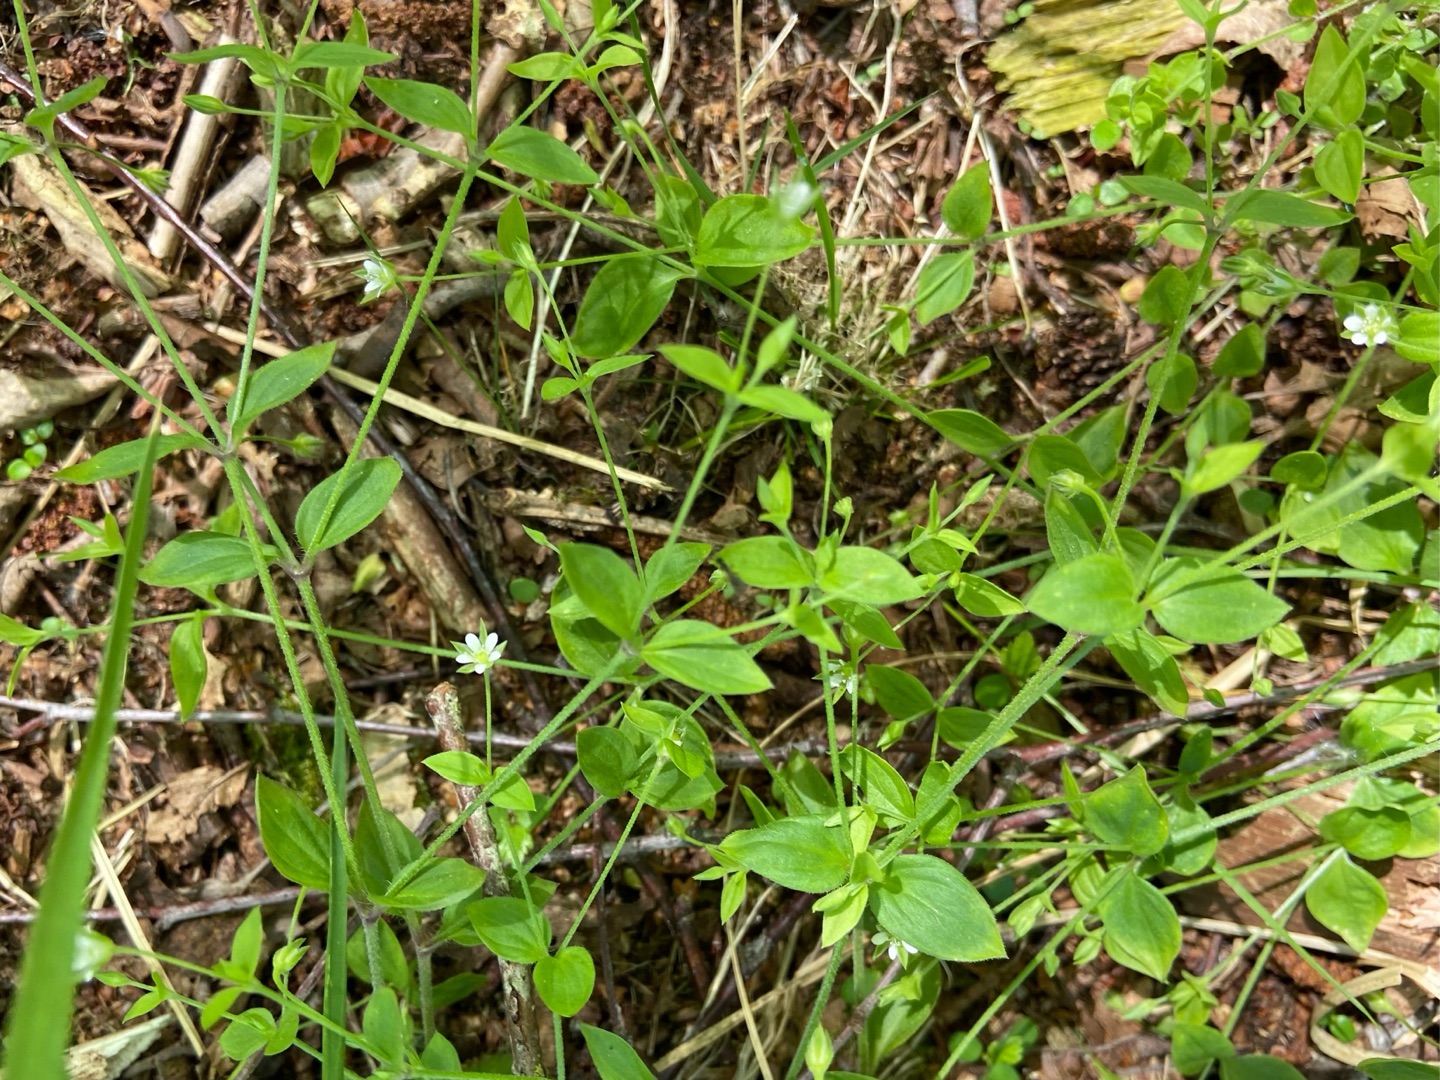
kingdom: Plantae
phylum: Tracheophyta
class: Magnoliopsida
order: Caryophyllales
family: Caryophyllaceae
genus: Moehringia
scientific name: Moehringia trinervia
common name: Skovarve
